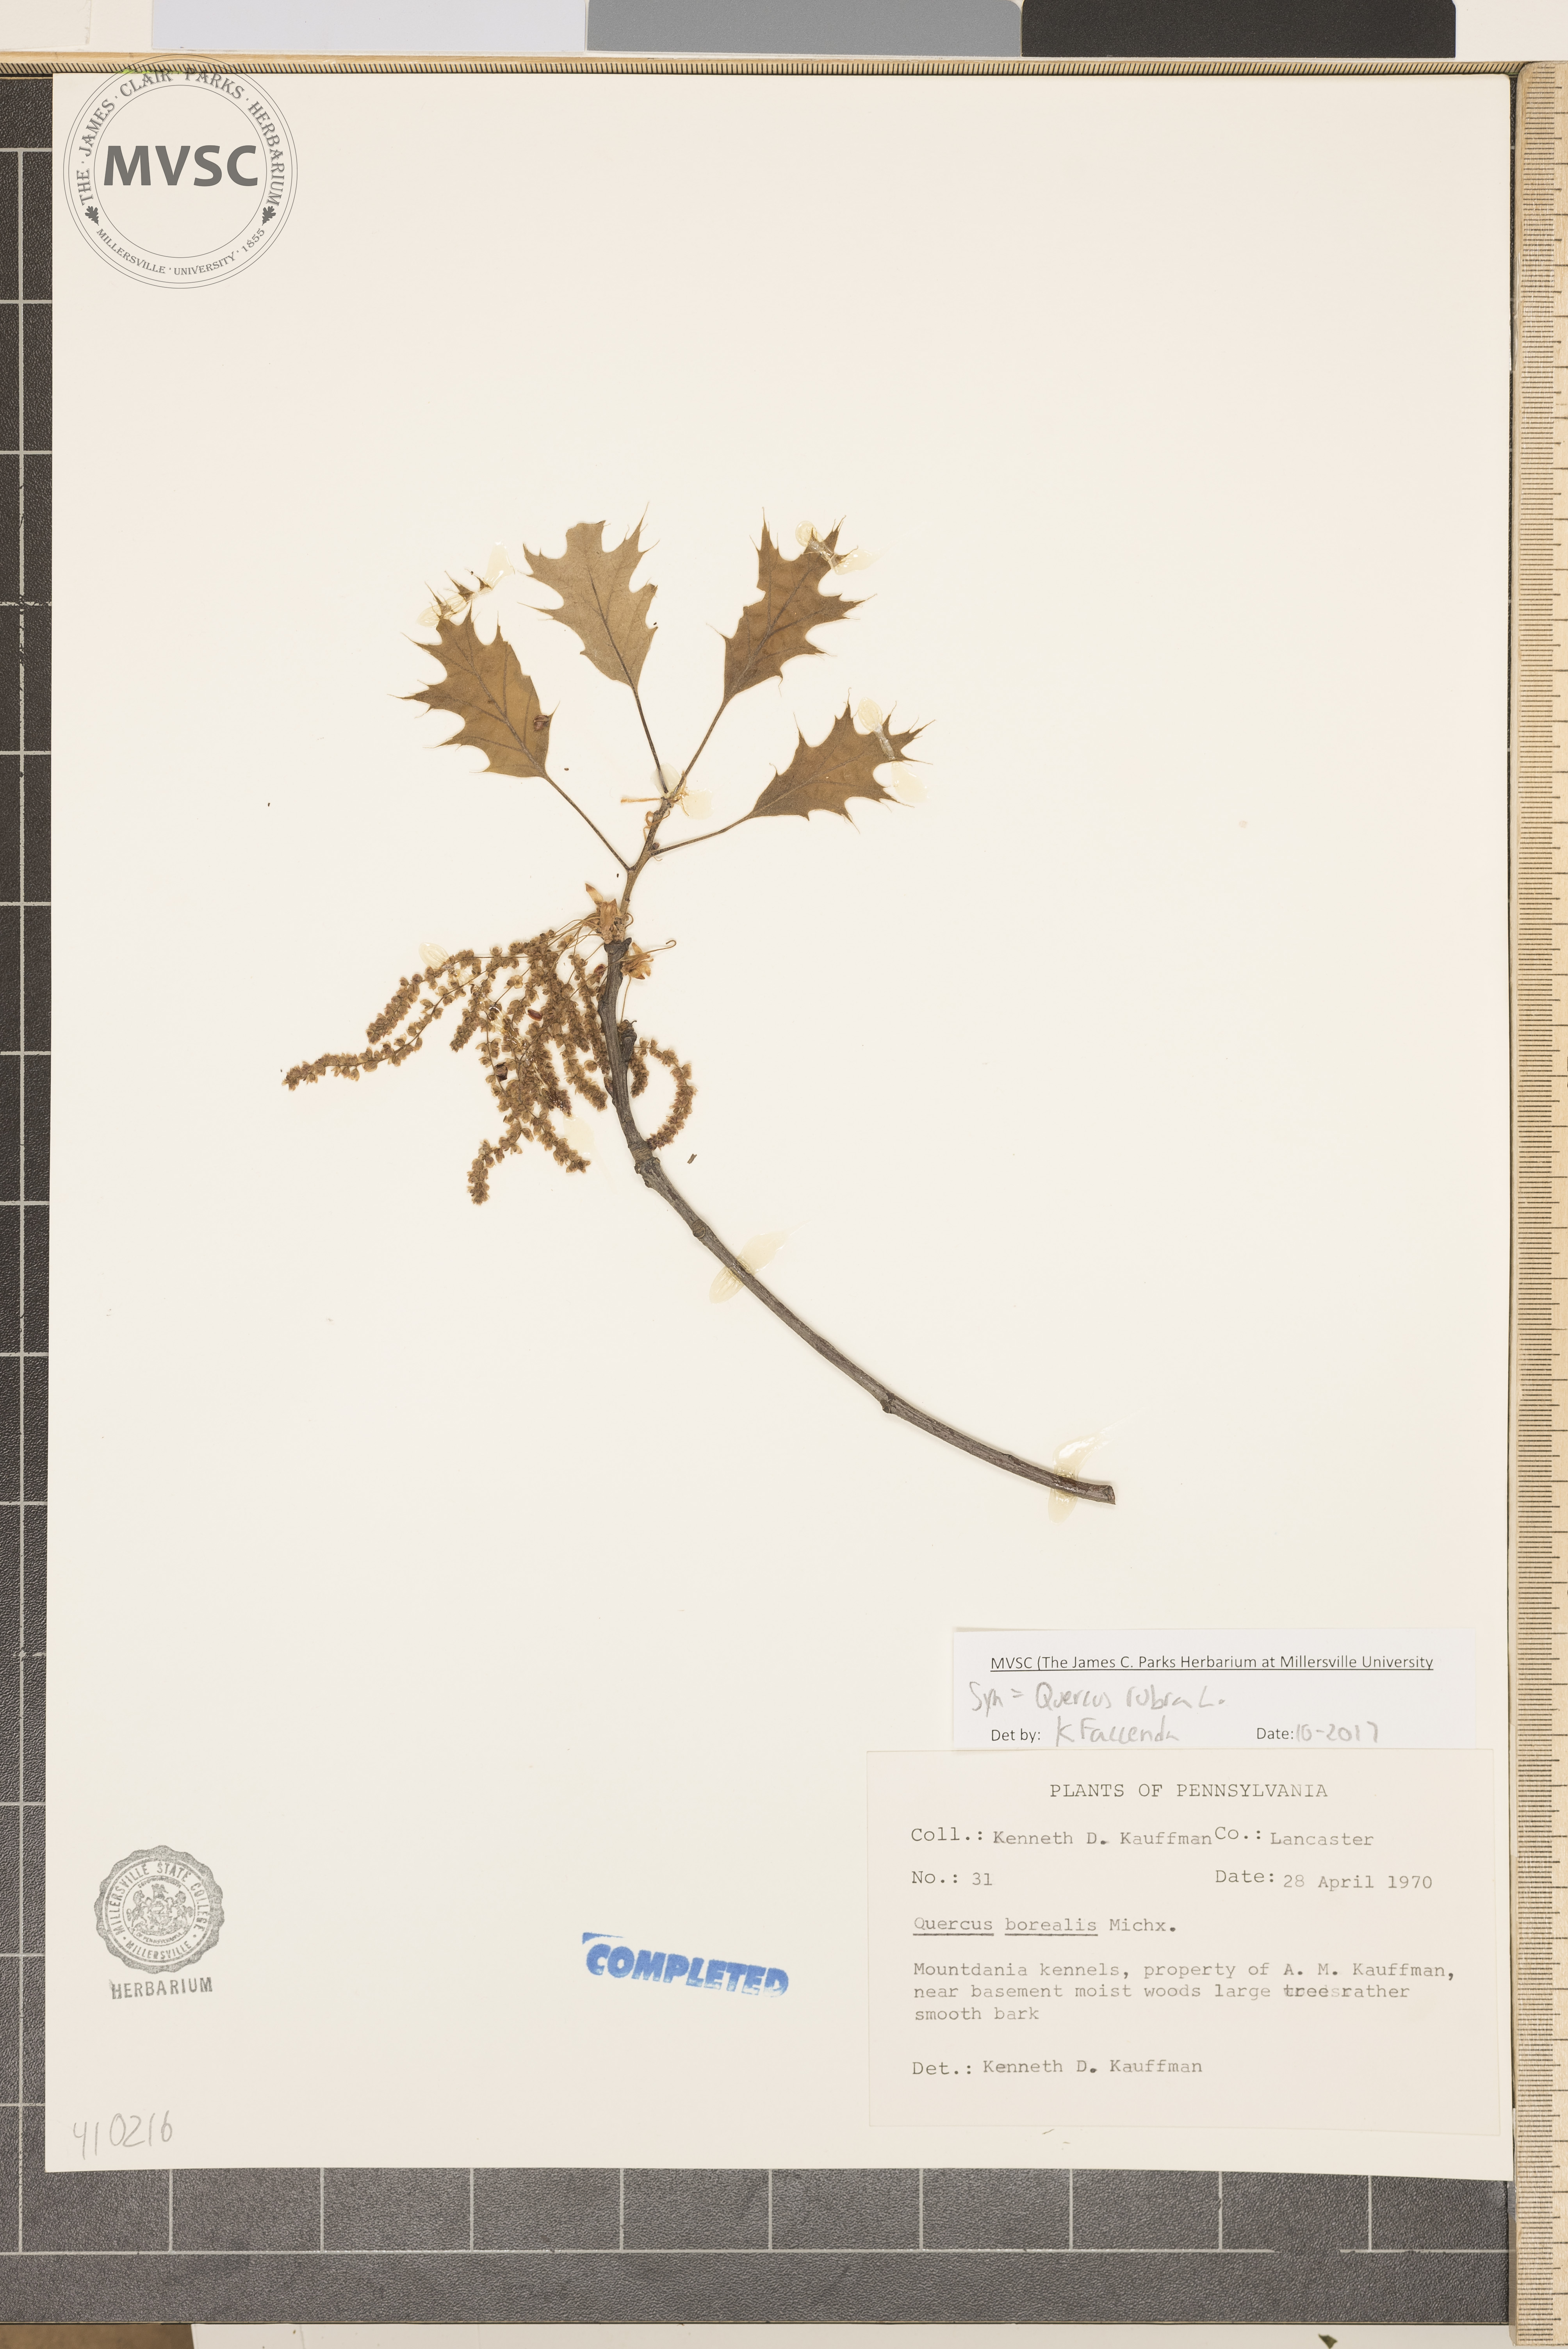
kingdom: Plantae
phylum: Tracheophyta
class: Magnoliopsida
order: Fagales
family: Fagaceae
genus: Quercus
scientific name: Quercus rubra
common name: Red oak
